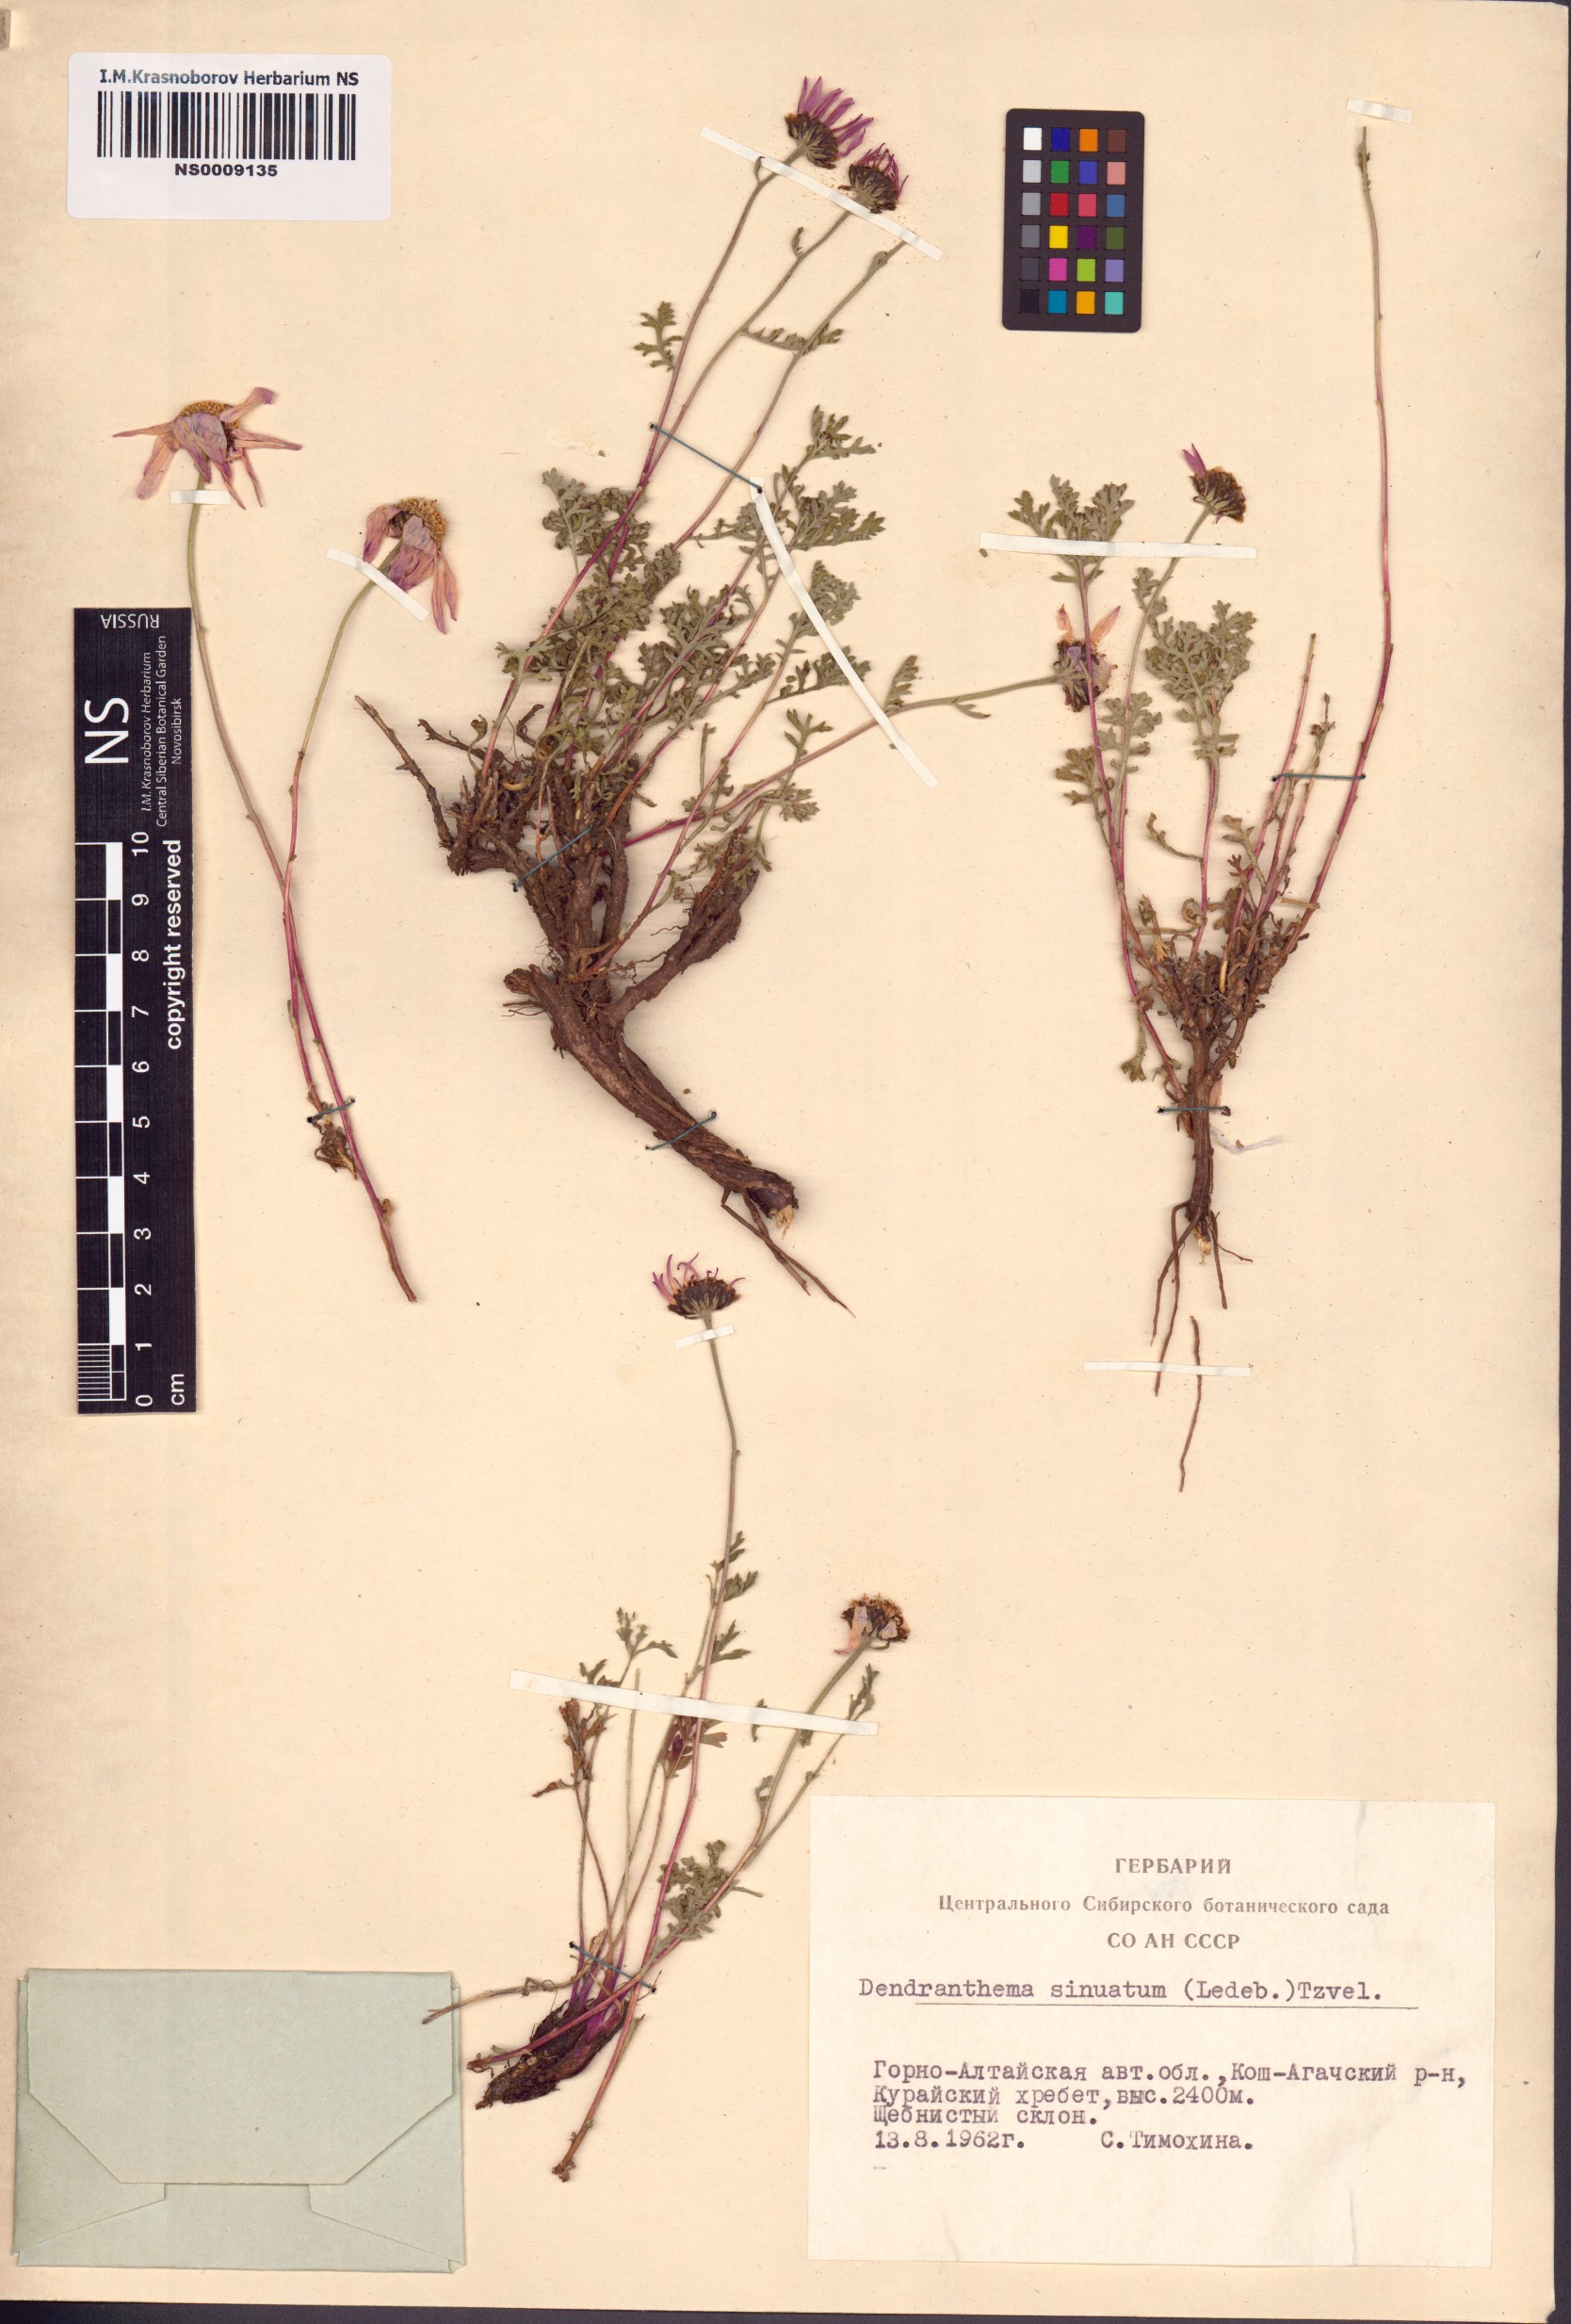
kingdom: Plantae
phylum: Tracheophyta
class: Magnoliopsida
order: Asterales
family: Asteraceae
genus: Chrysanthemum
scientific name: Chrysanthemum sinuatum
